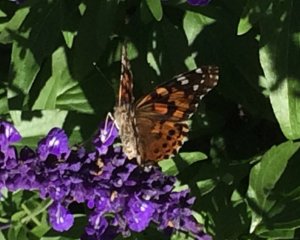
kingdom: Animalia
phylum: Arthropoda
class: Insecta
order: Lepidoptera
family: Nymphalidae
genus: Vanessa
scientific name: Vanessa cardui
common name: Painted Lady
